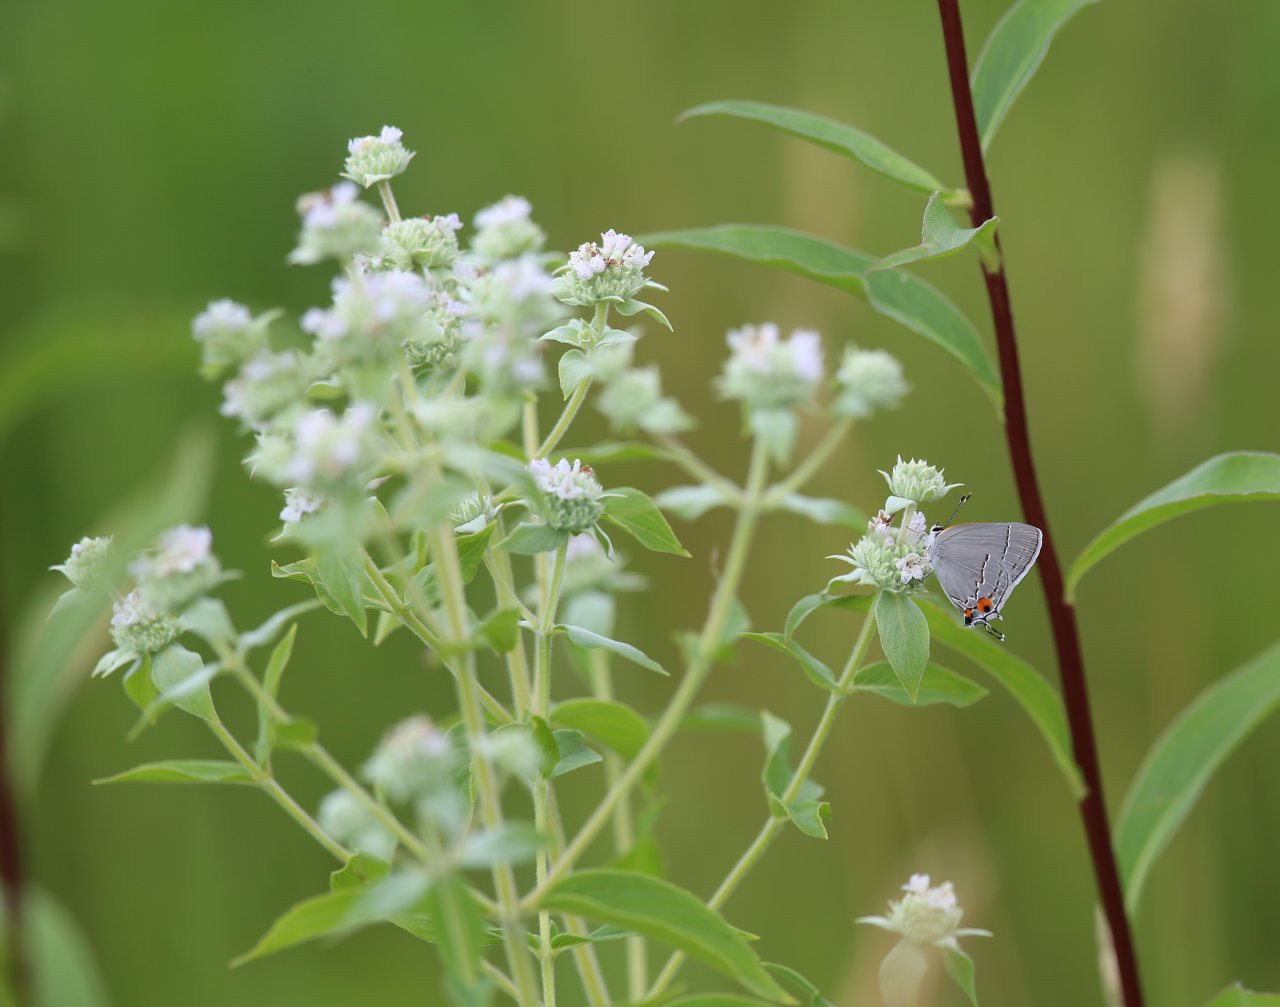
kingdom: Animalia
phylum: Arthropoda
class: Insecta
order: Lepidoptera
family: Lycaenidae
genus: Strymon
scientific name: Strymon melinus
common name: Gray Hairstreak
